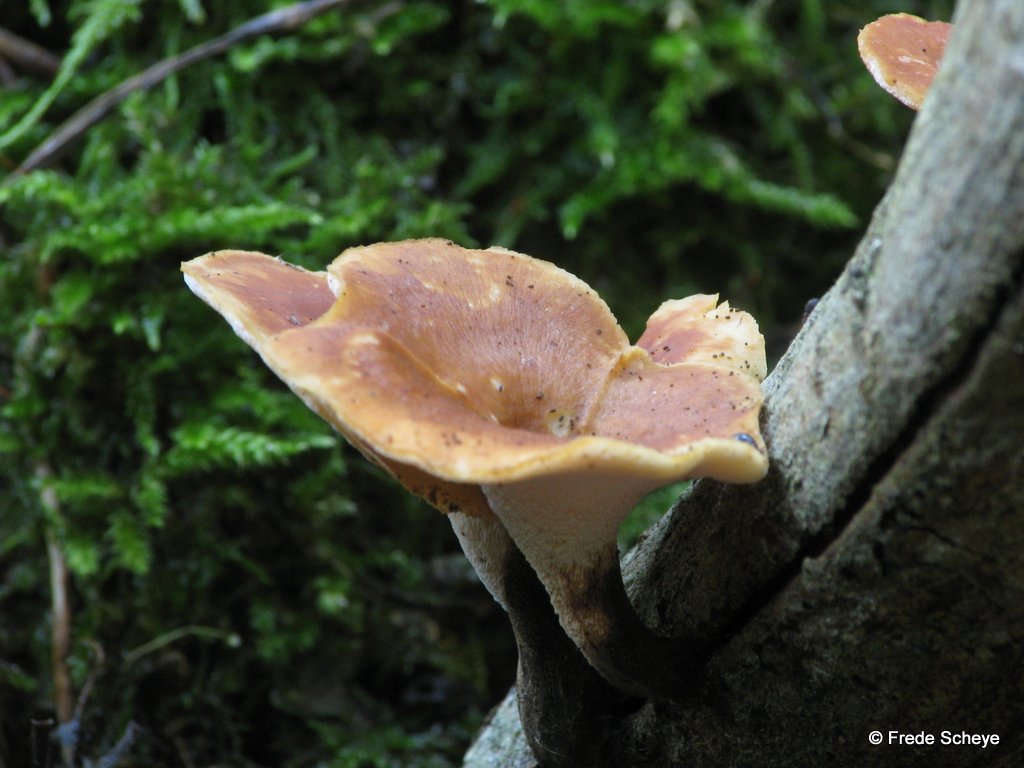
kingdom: Fungi
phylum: Basidiomycota
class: Agaricomycetes
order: Polyporales
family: Polyporaceae
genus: Cerioporus
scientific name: Cerioporus varius
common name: foranderlig stilkporesvamp
